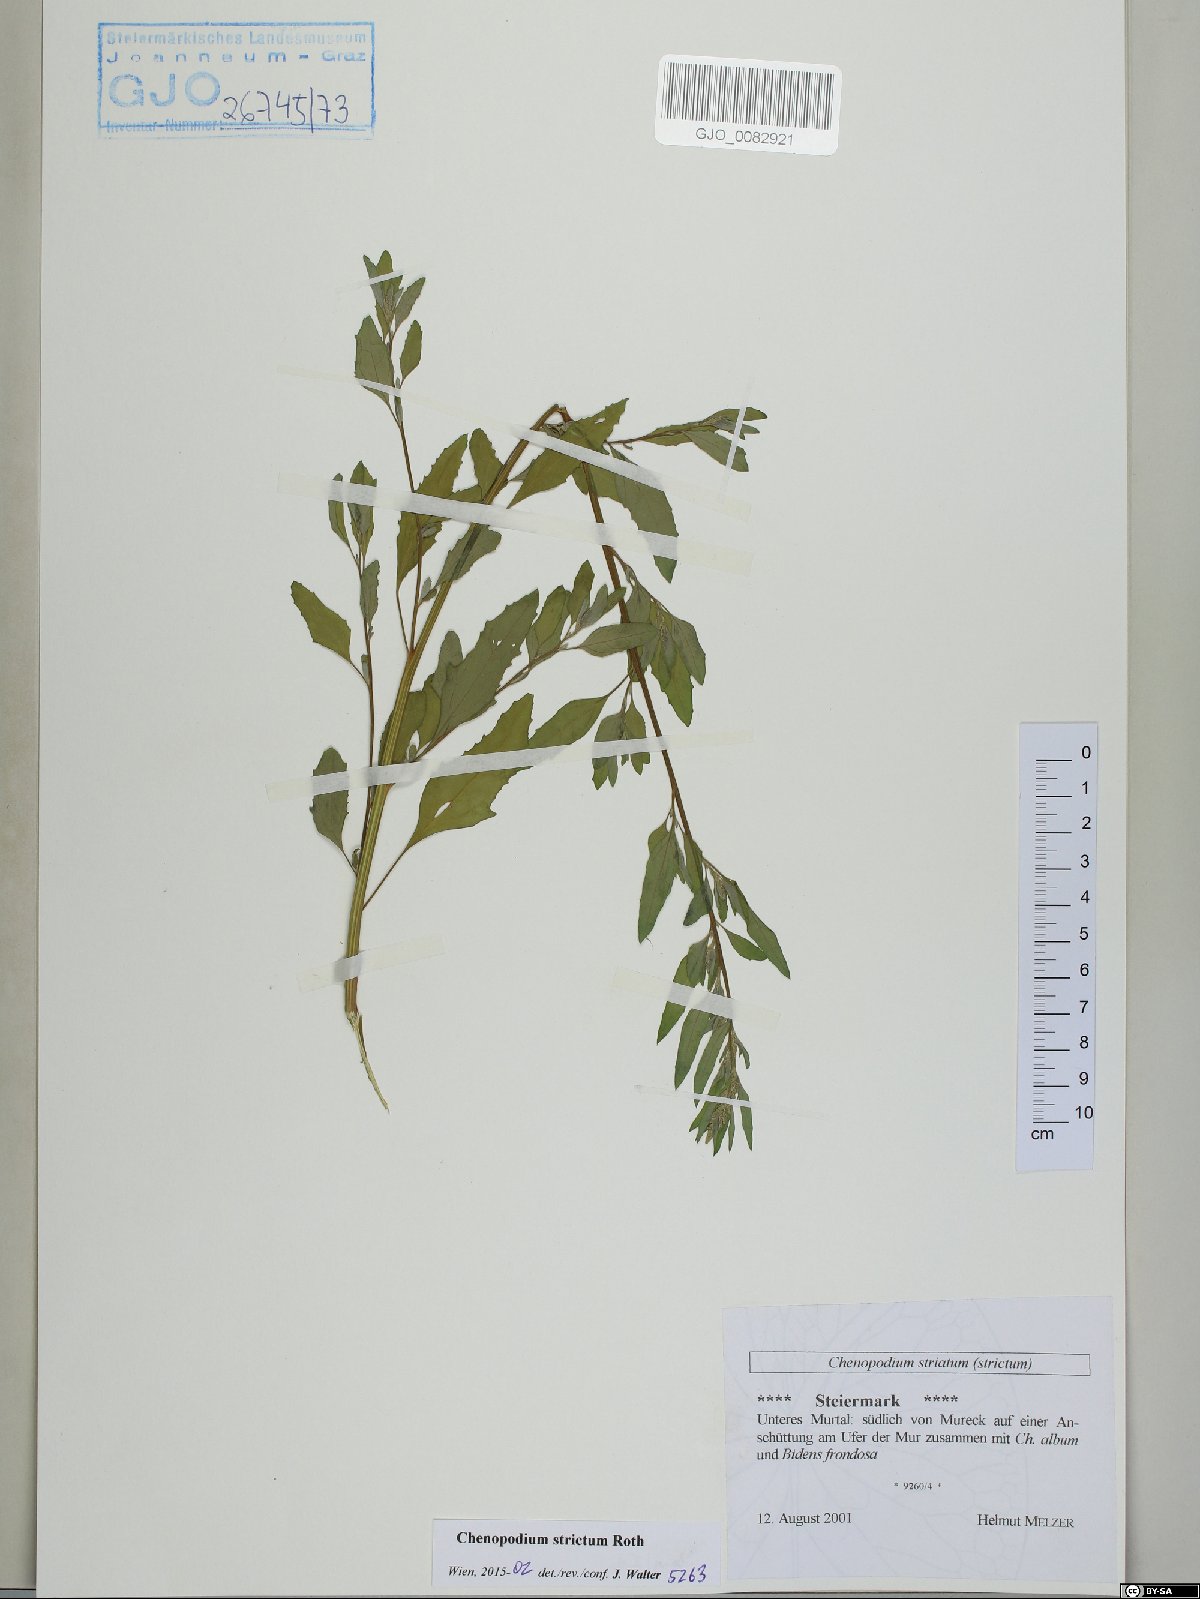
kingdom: Plantae
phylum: Tracheophyta
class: Magnoliopsida
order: Caryophyllales
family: Amaranthaceae
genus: Chenopodium
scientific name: Chenopodium album
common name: Fat-hen
